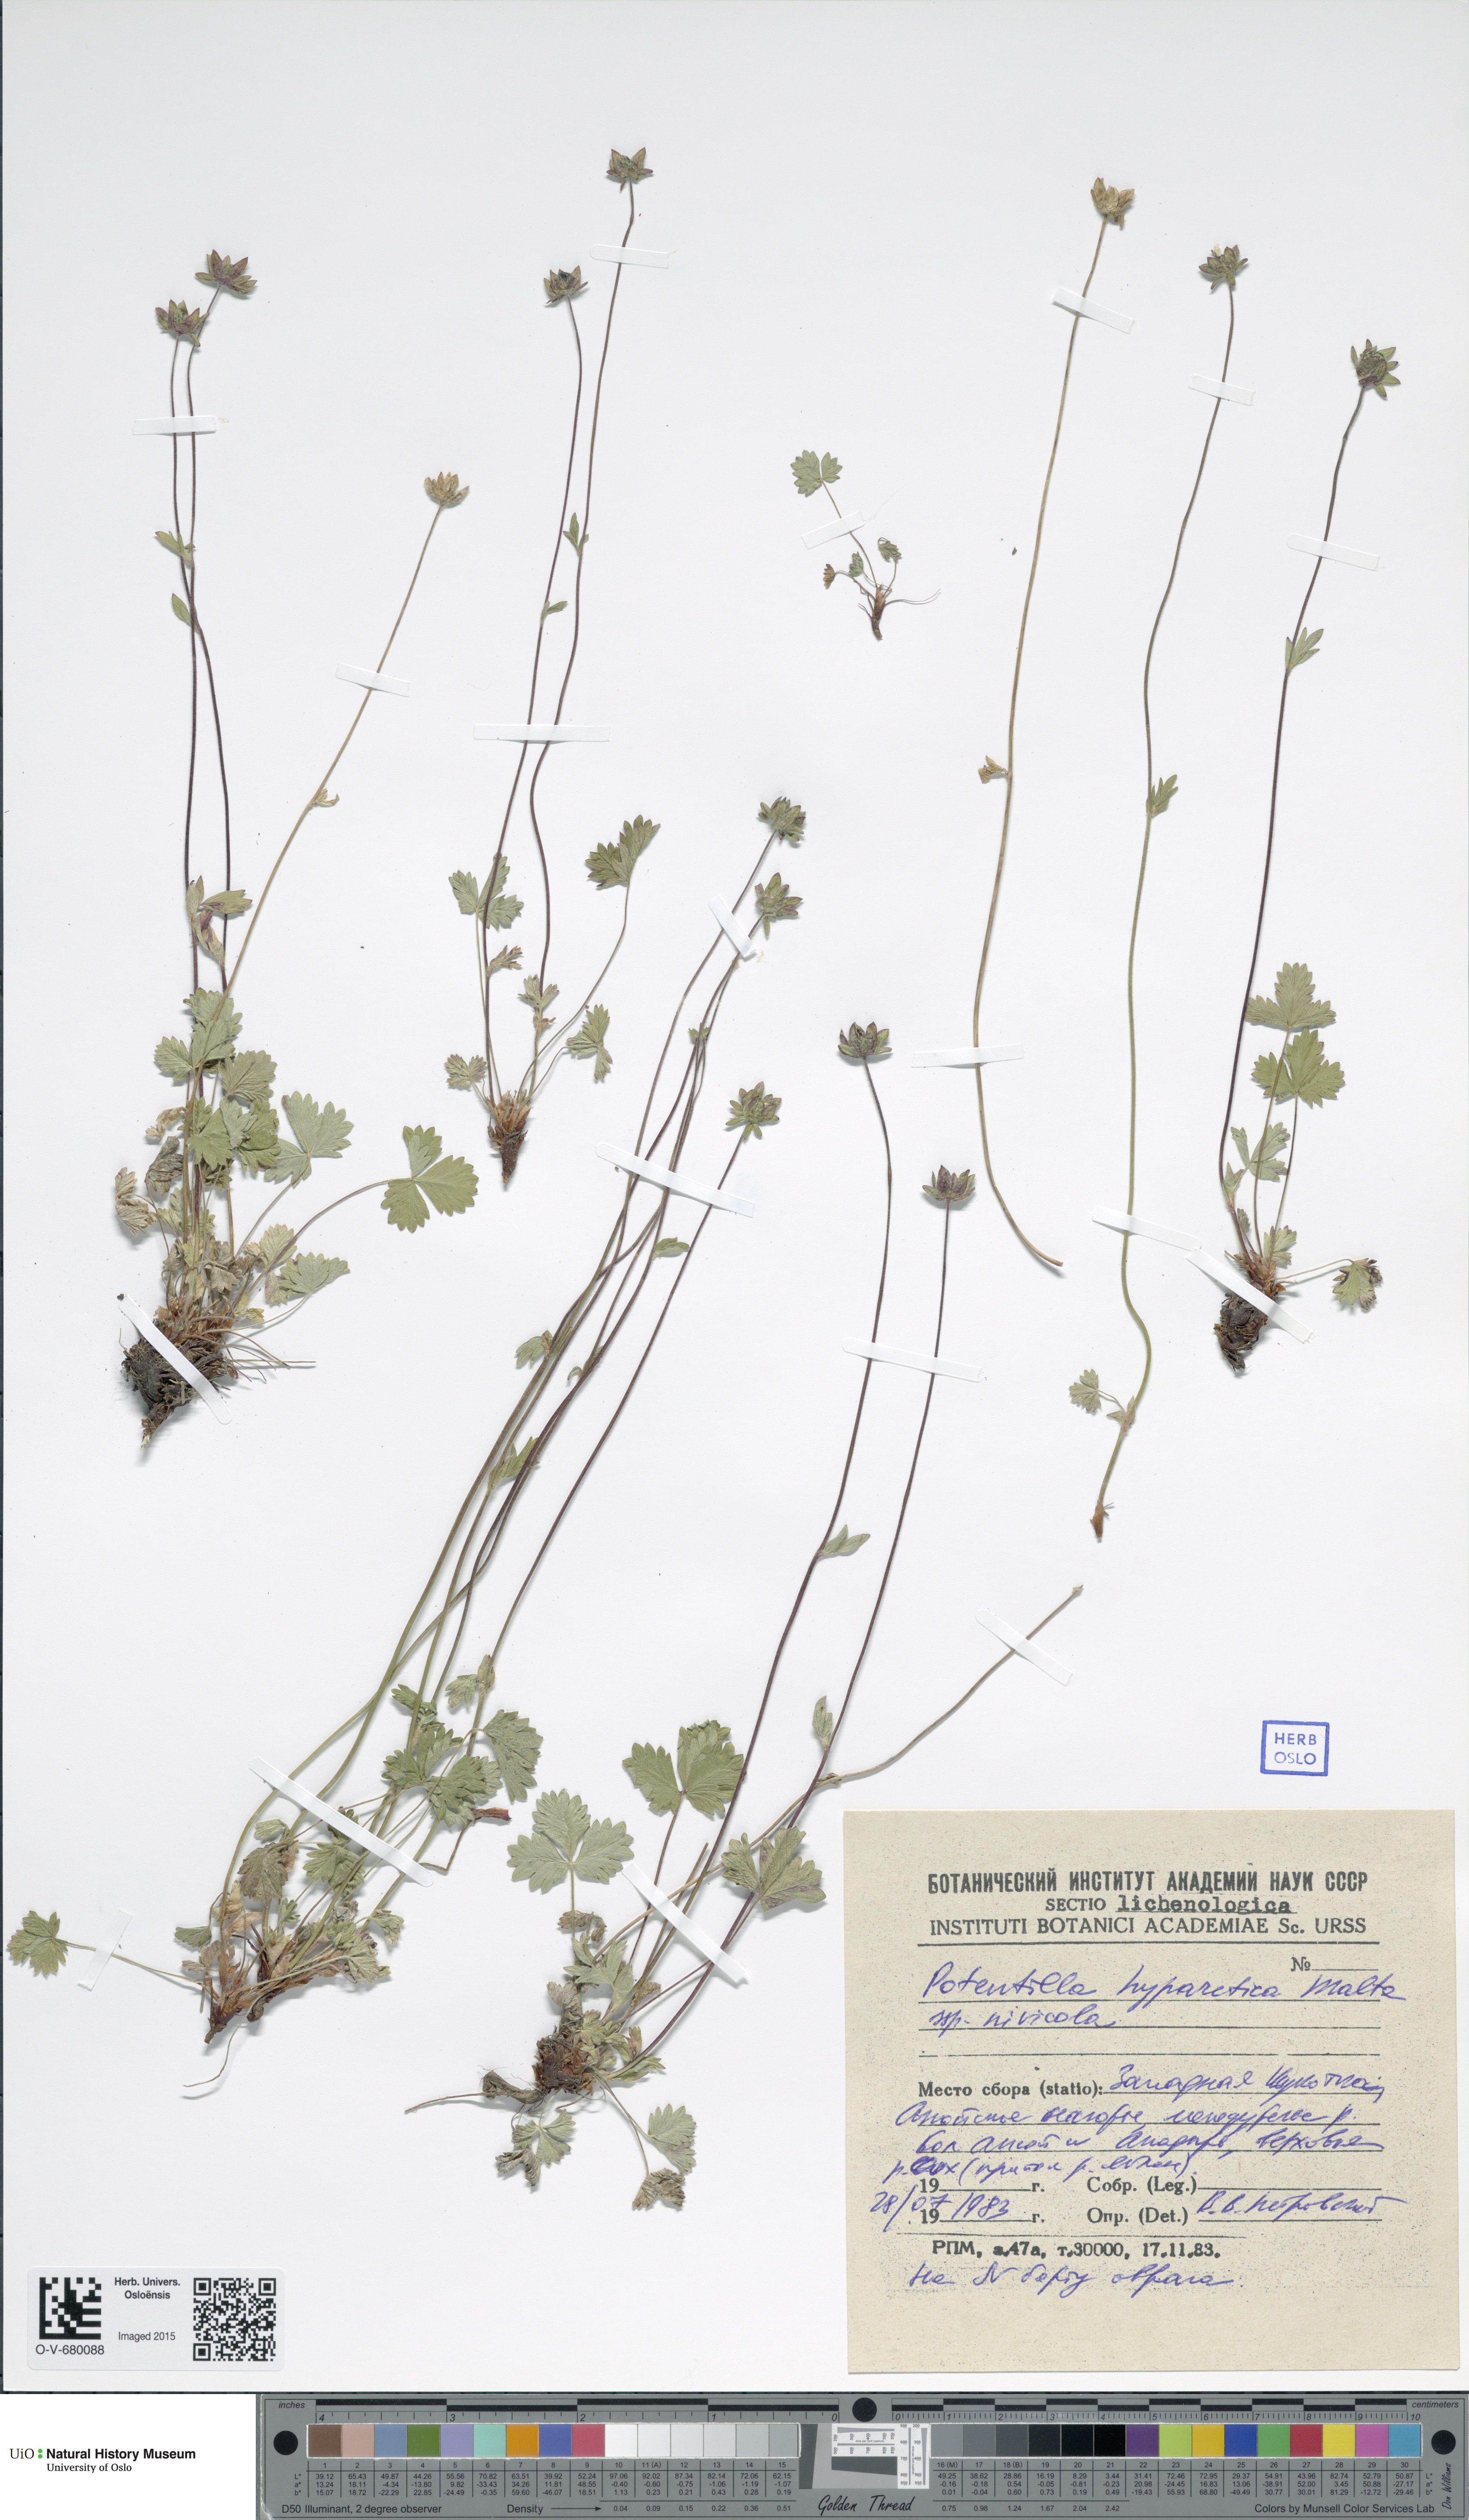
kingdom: Plantae
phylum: Tracheophyta
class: Magnoliopsida
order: Rosales
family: Rosaceae
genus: Potentilla
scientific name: Potentilla hyparctica
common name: Arctic cinquefoil
